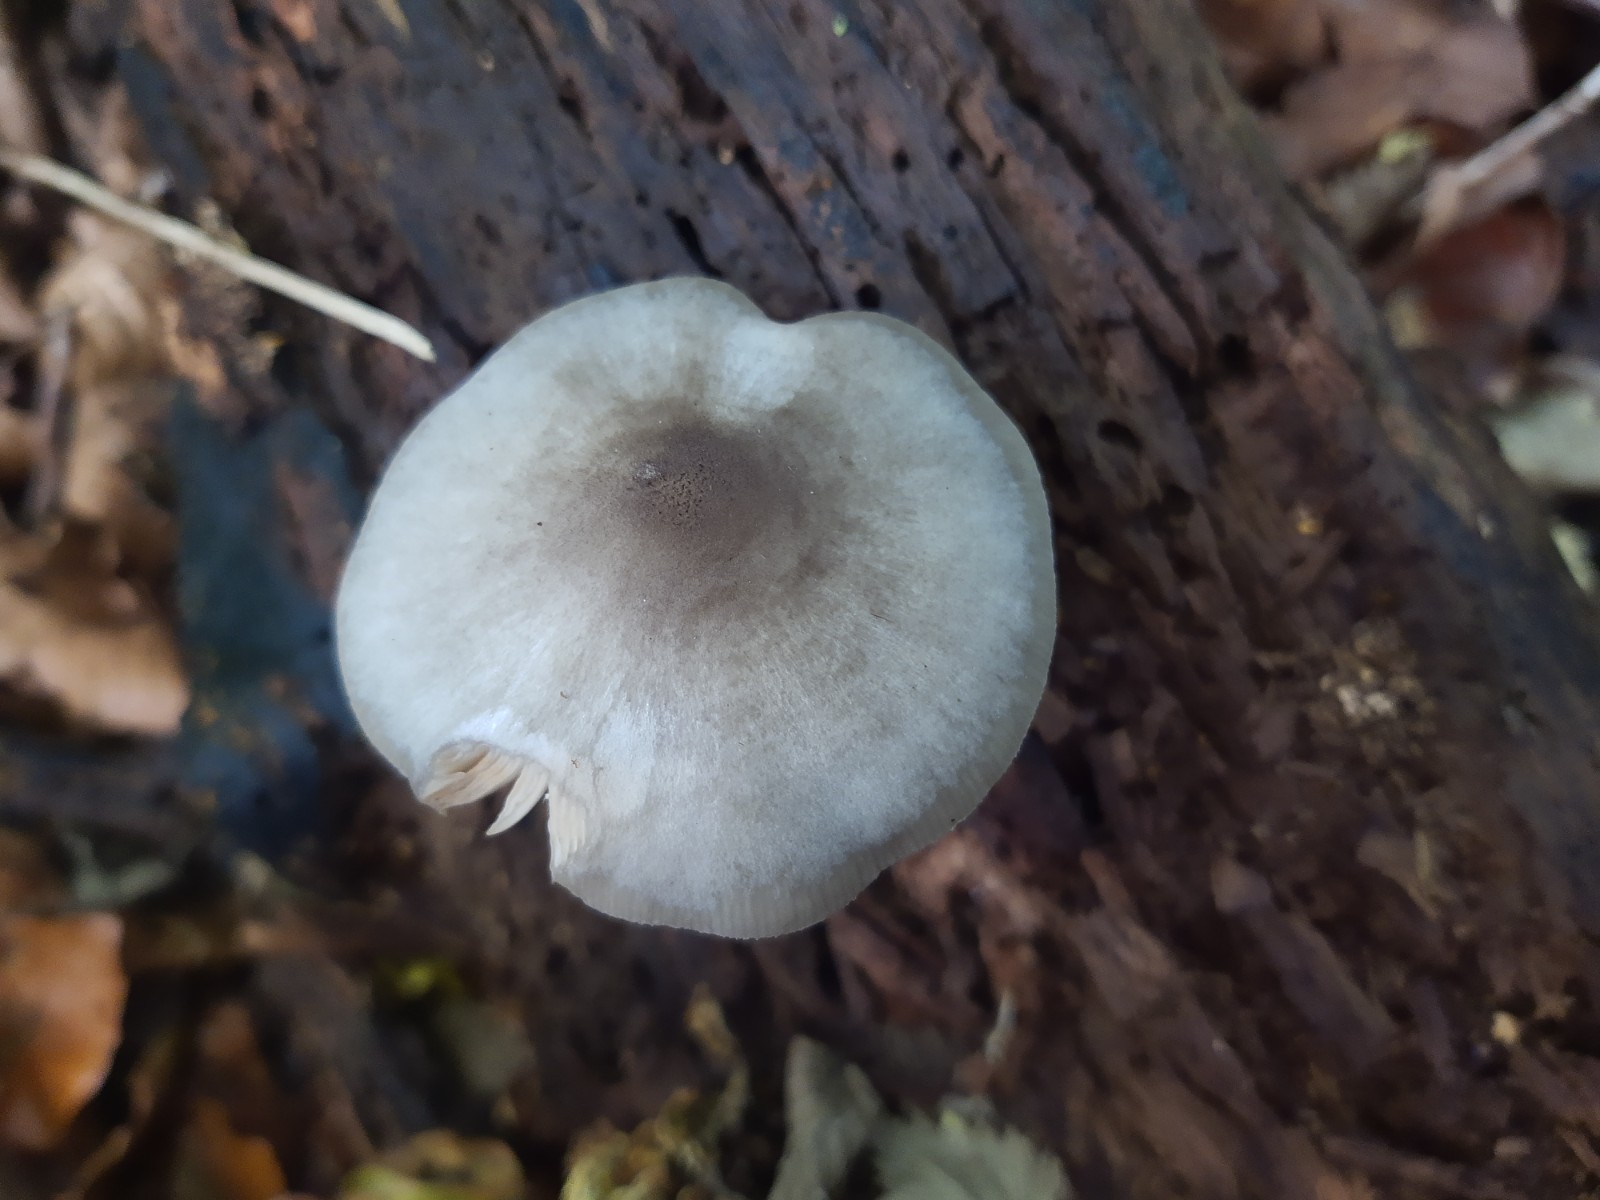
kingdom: Fungi
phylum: Basidiomycota
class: Agaricomycetes
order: Agaricales
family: Pluteaceae
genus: Pluteus
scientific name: Pluteus salicinus
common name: stiv skærmhat
